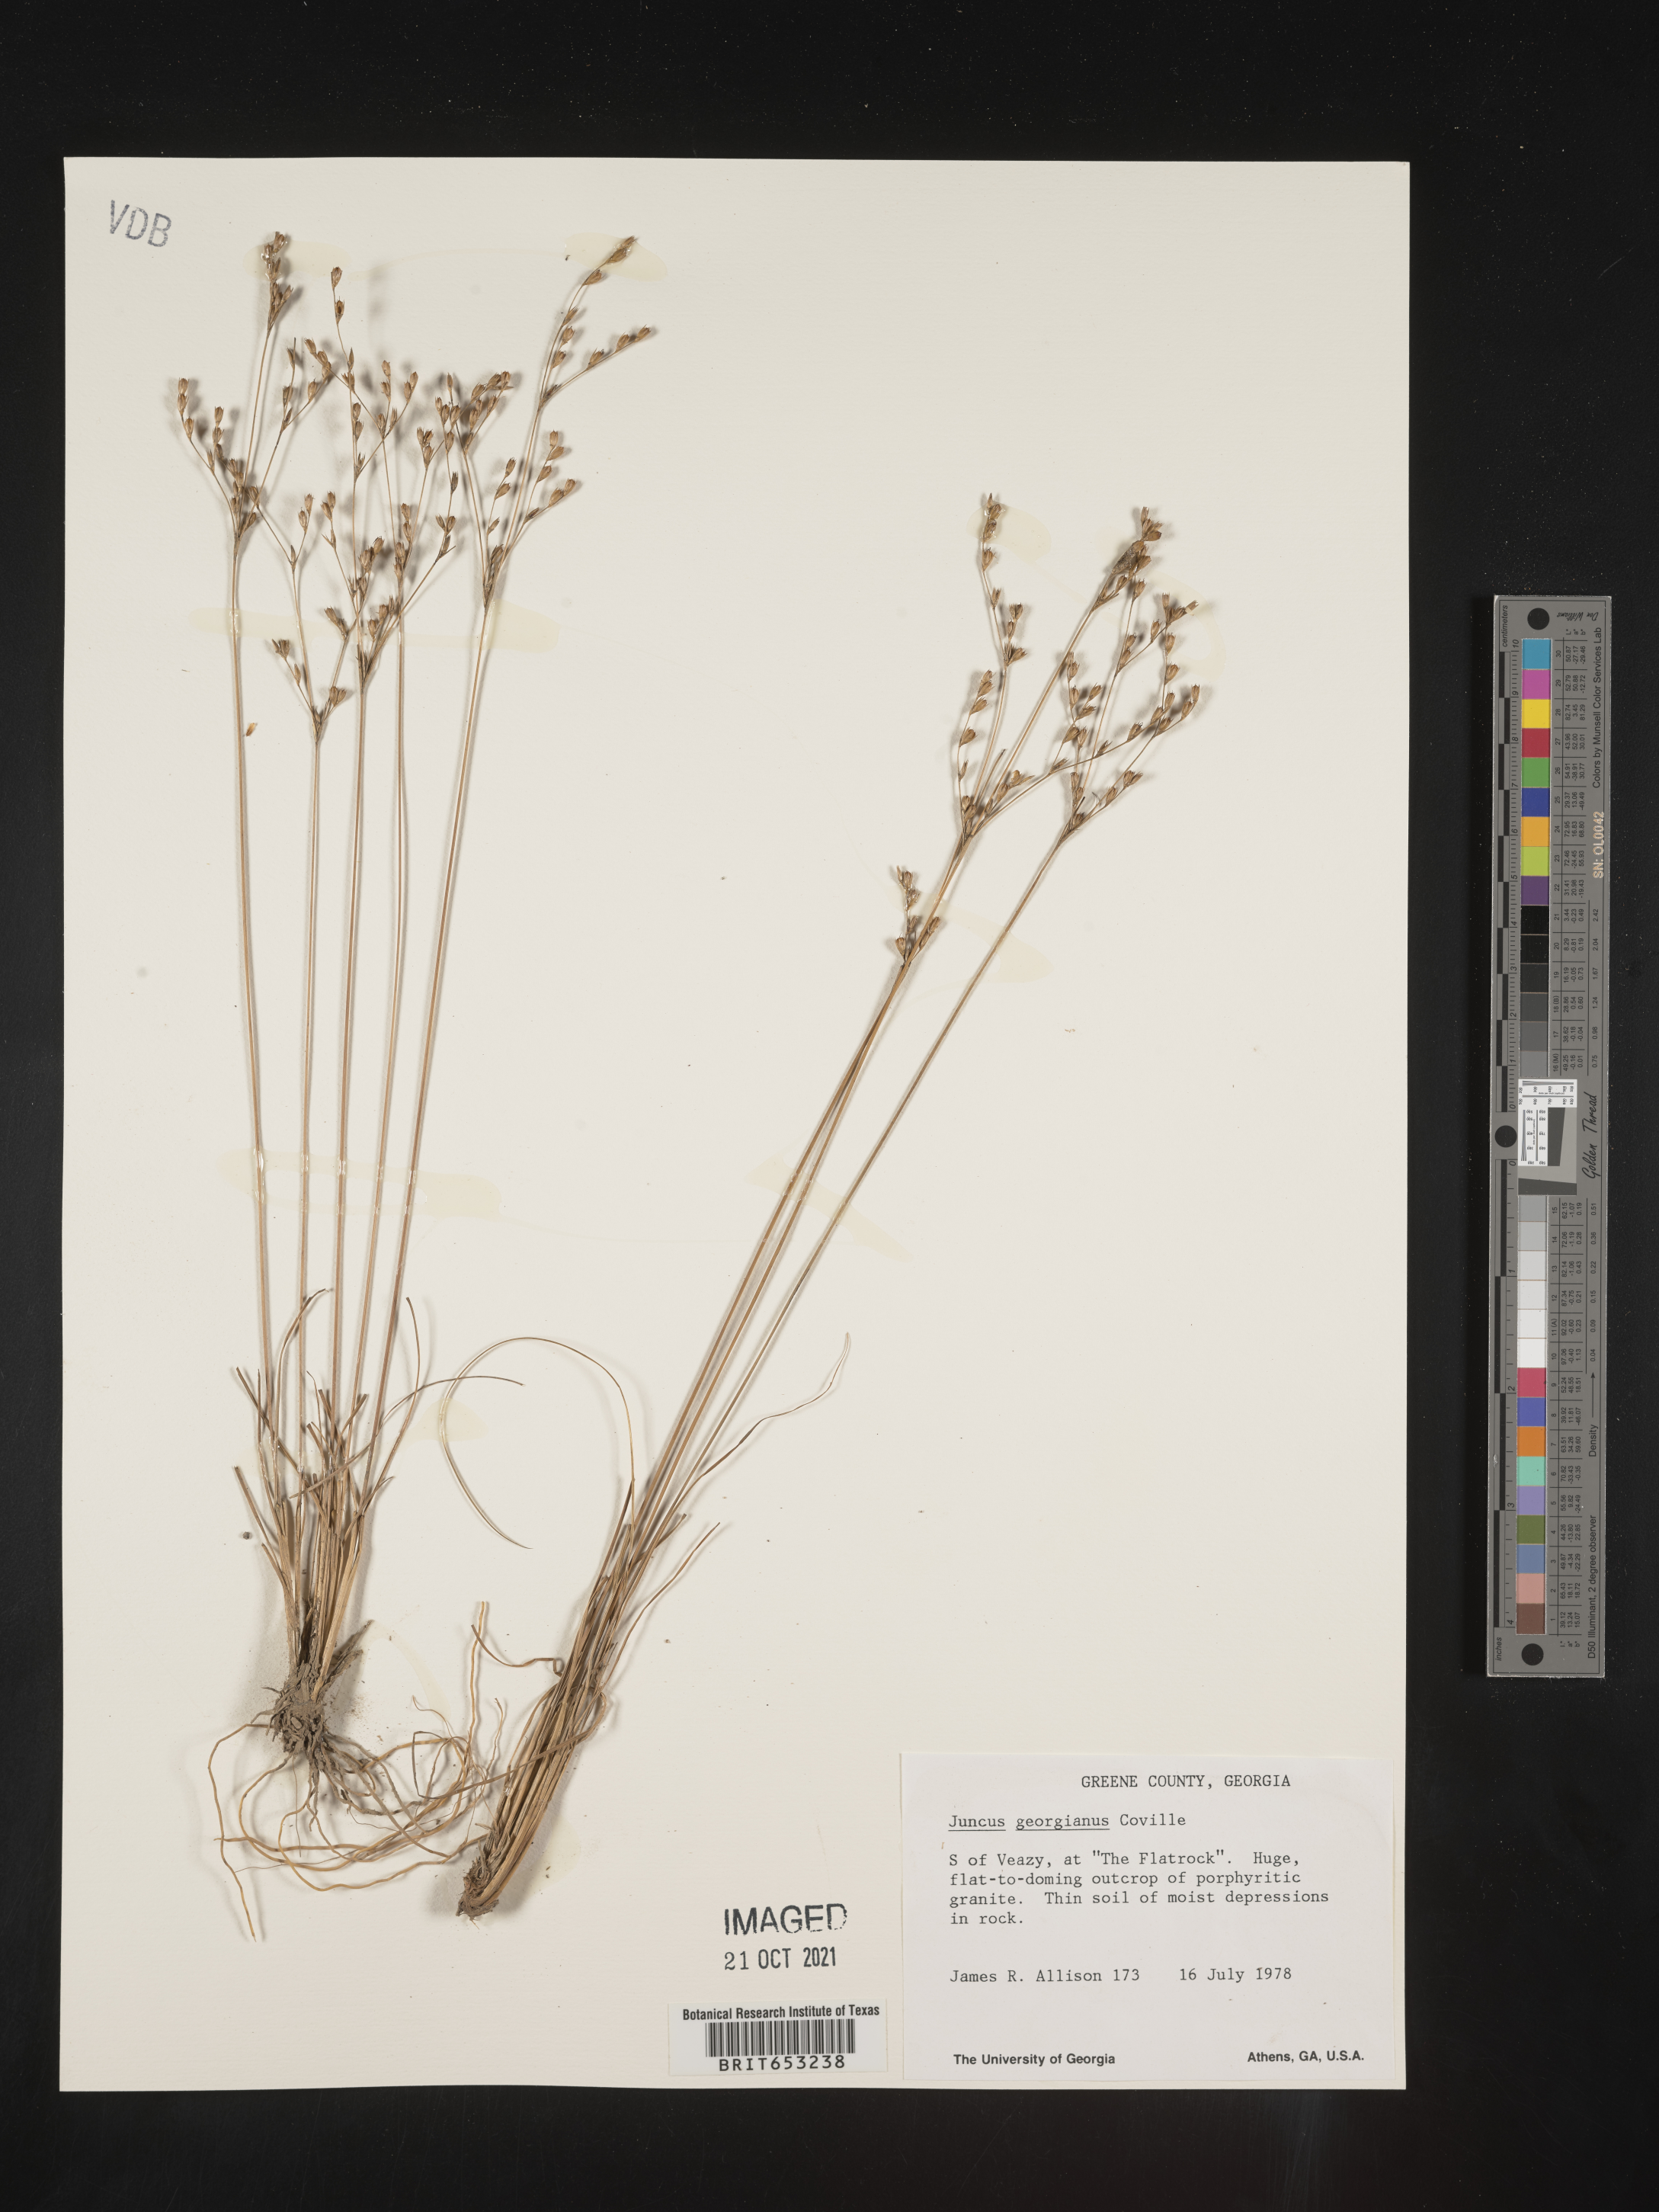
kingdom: Plantae
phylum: Tracheophyta
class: Liliopsida
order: Poales
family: Juncaceae
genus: Juncus
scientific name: Juncus georgianus
